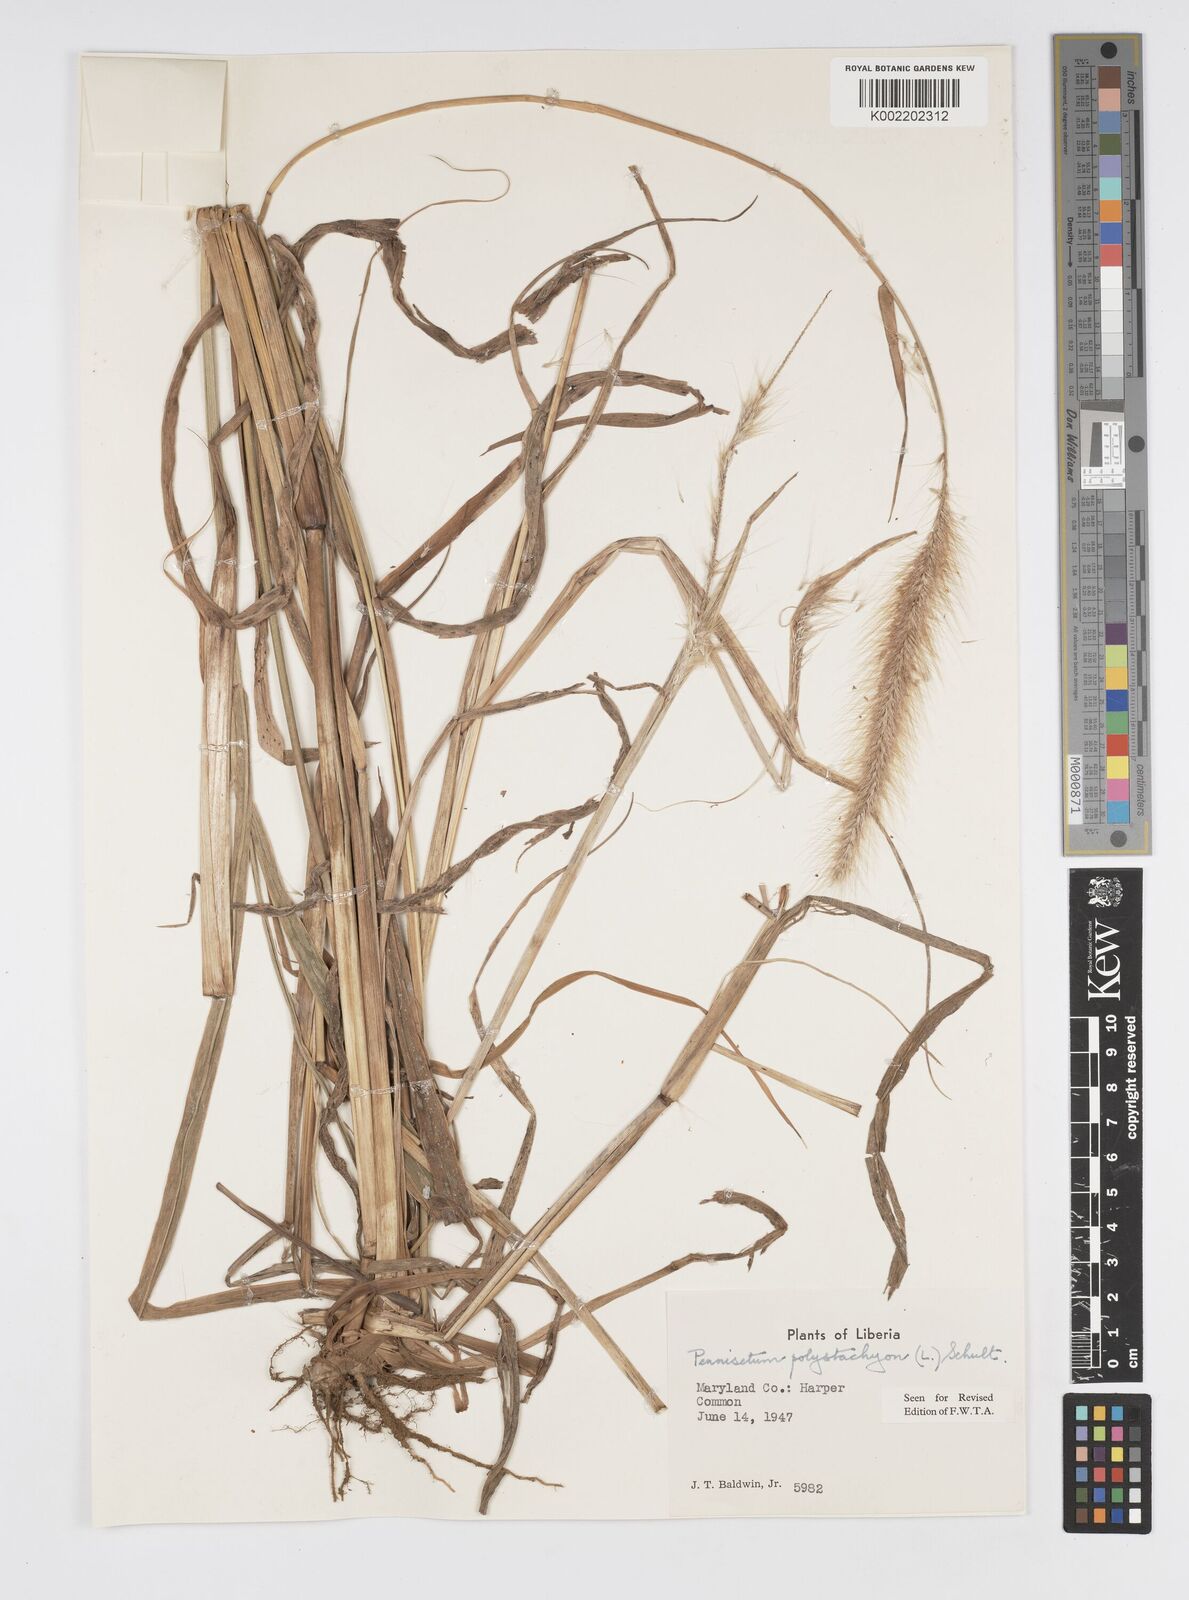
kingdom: Plantae
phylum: Tracheophyta
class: Liliopsida
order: Poales
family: Poaceae
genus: Setaria
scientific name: Setaria parviflora
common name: Knotroot bristle-grass
